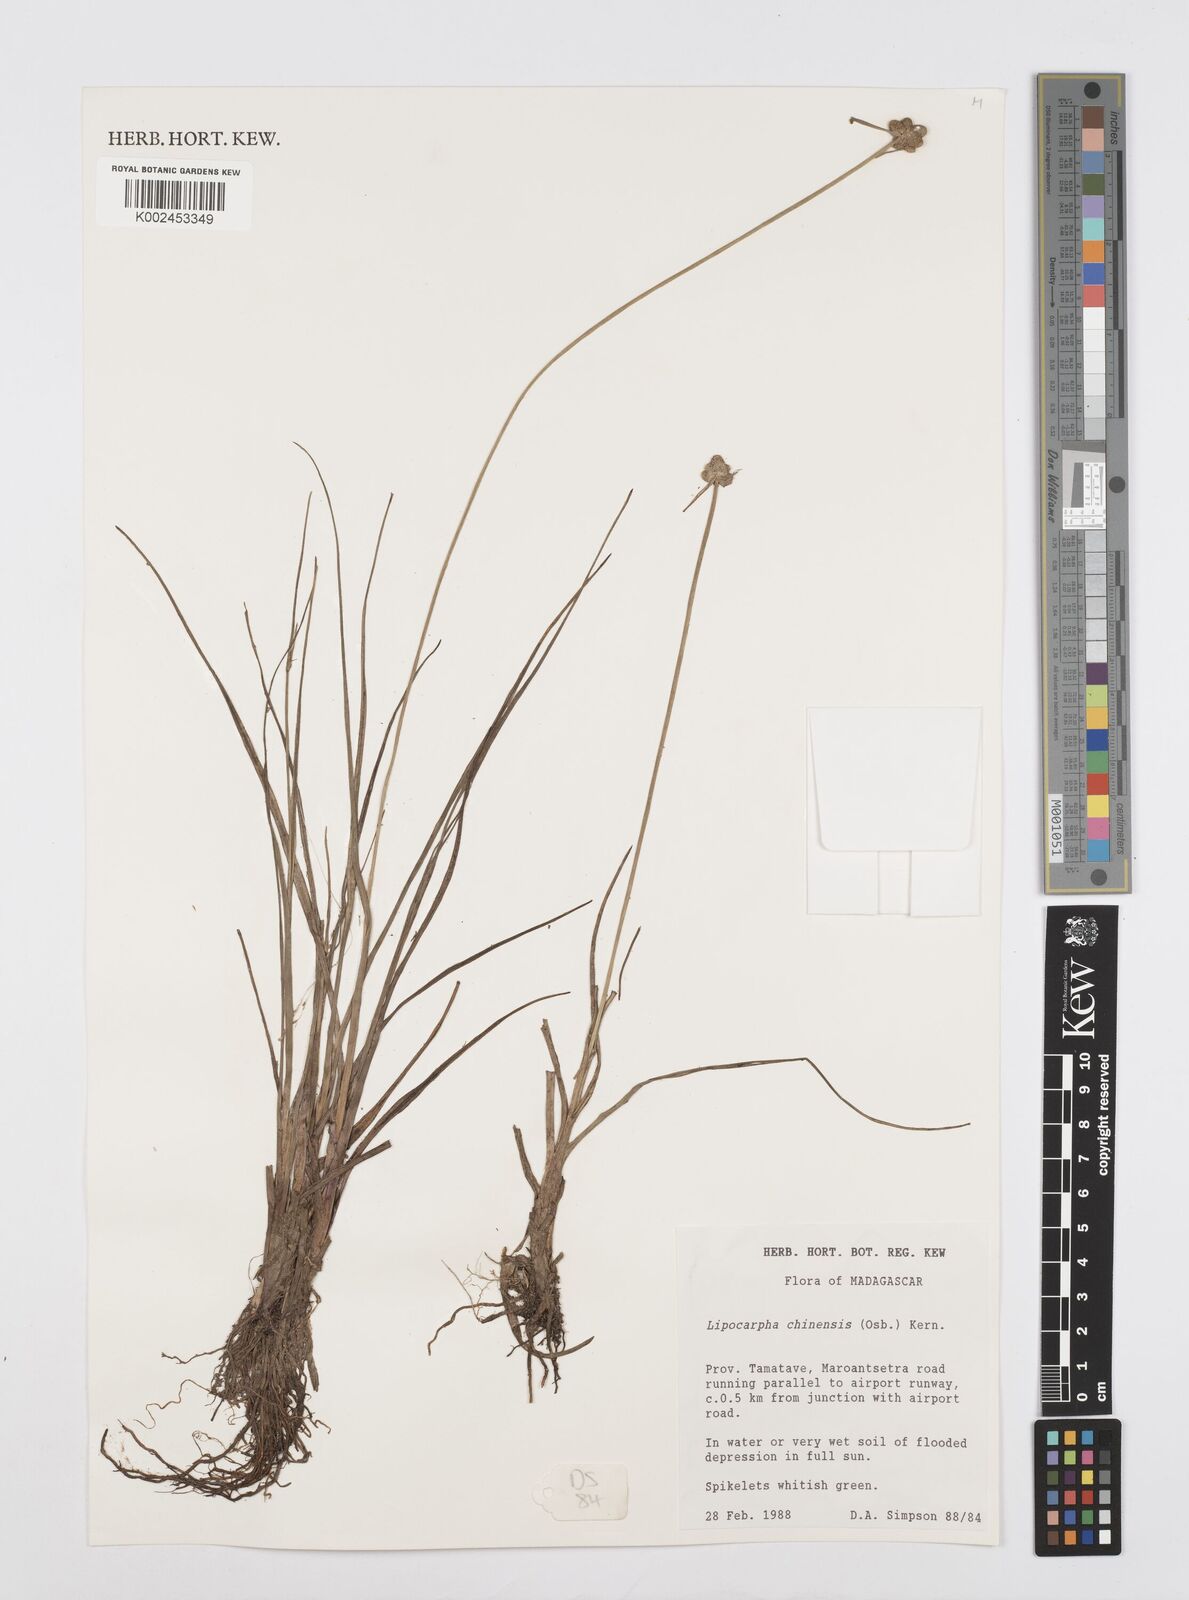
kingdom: Plantae
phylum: Tracheophyta
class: Liliopsida
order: Poales
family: Cyperaceae
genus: Cyperus
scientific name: Cyperus
